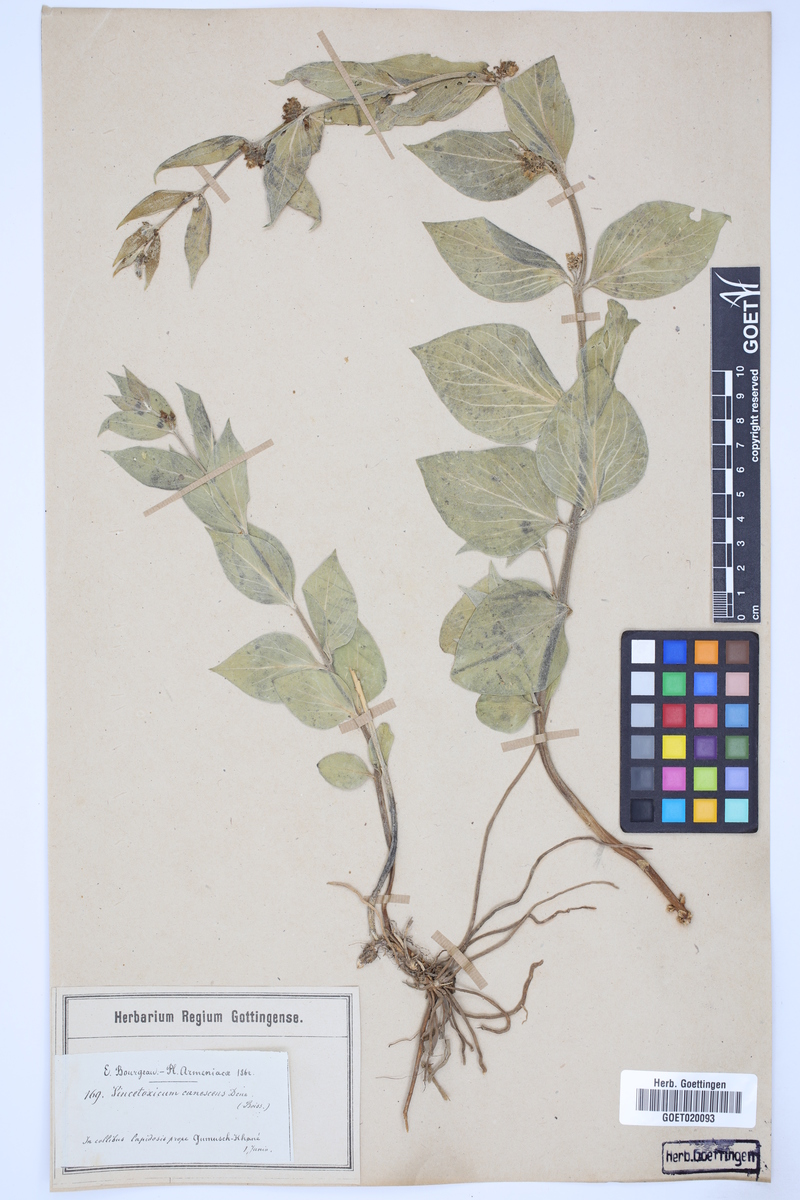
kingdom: Plantae
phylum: Tracheophyta
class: Magnoliopsida
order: Gentianales
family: Apocynaceae
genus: Vincetoxicum
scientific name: Vincetoxicum canescens
